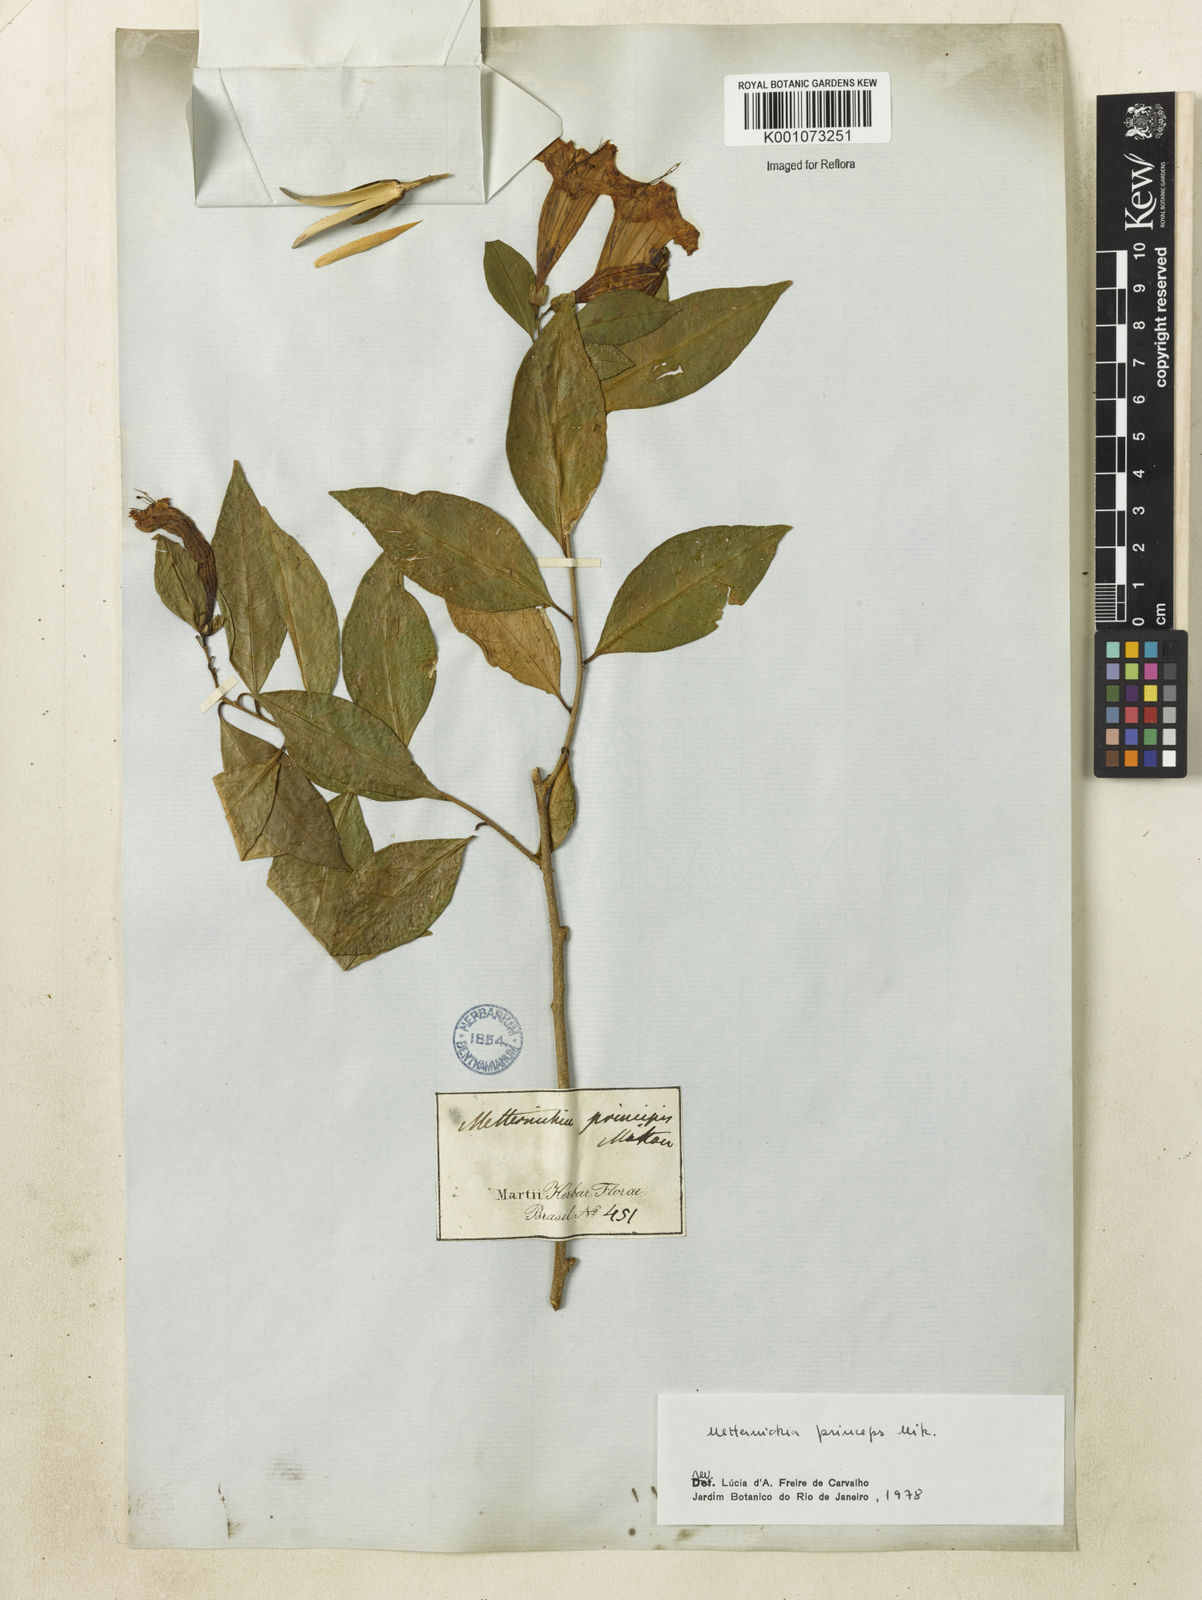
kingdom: Plantae
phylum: Tracheophyta
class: Magnoliopsida
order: Solanales
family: Solanaceae
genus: Metternichia
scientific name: Metternichia
